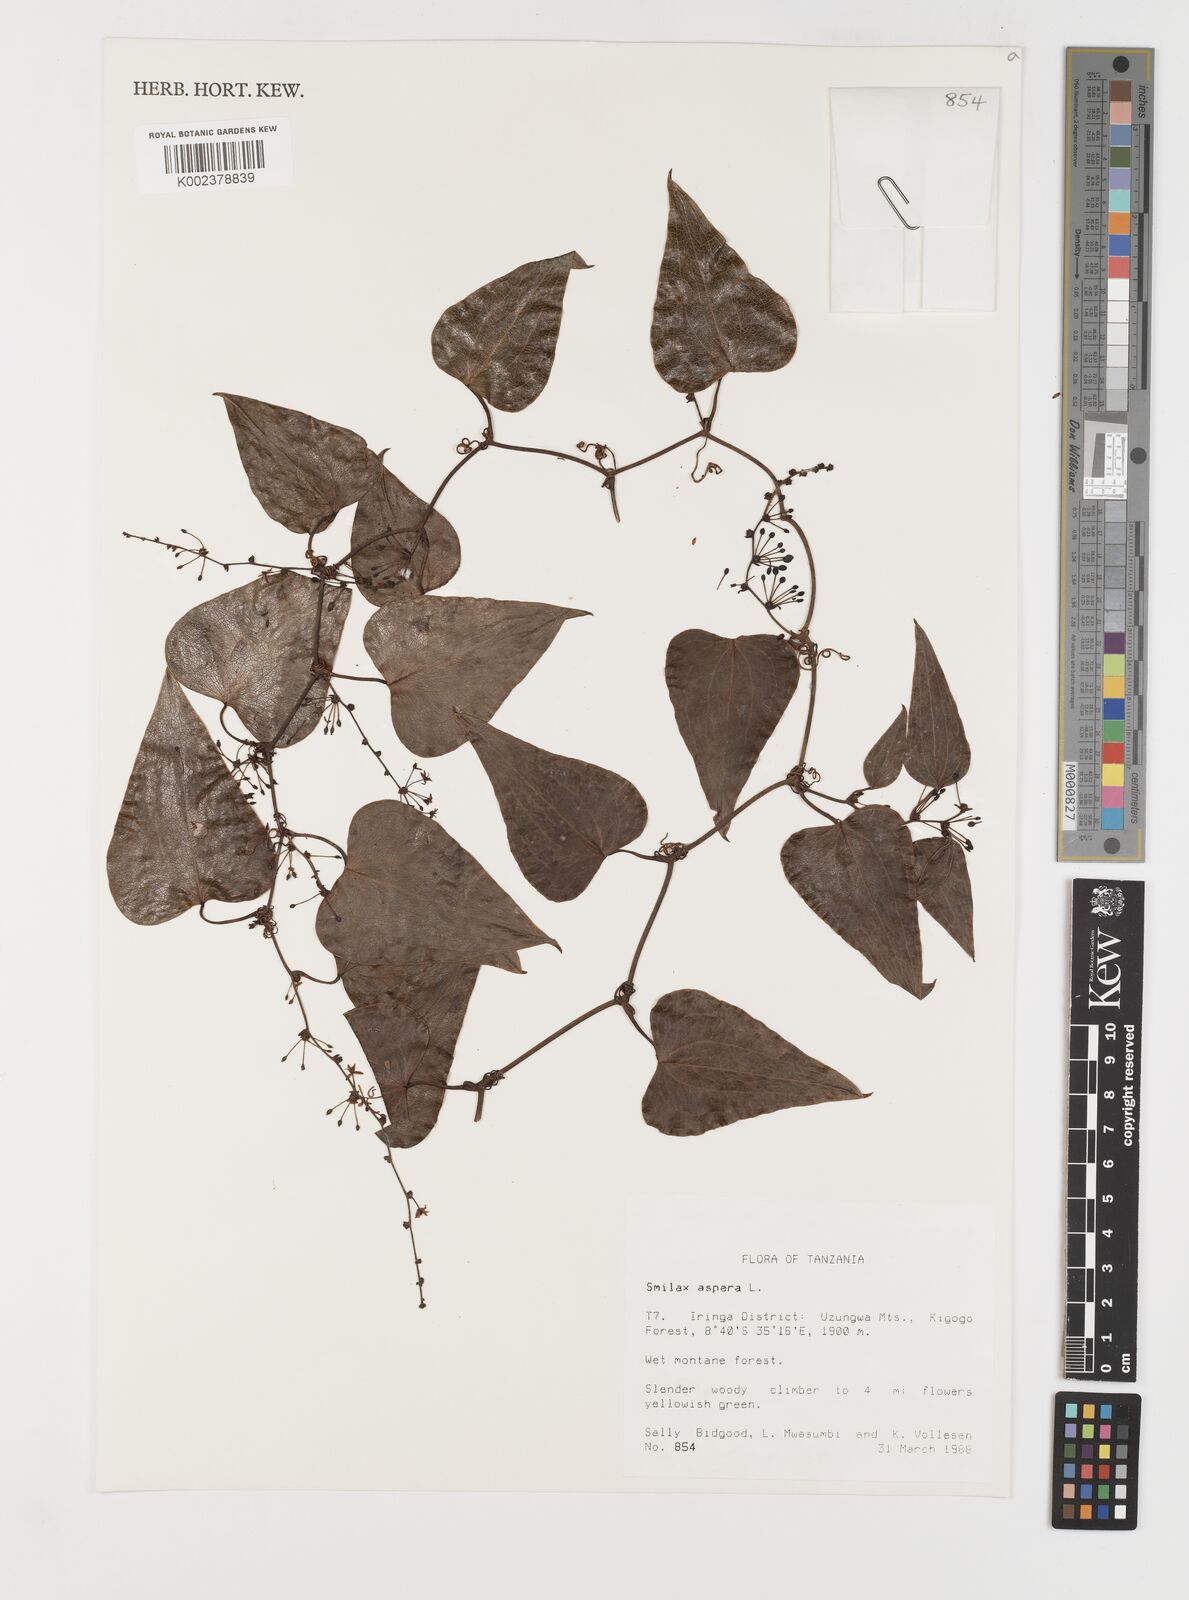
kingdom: Plantae
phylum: Tracheophyta
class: Liliopsida
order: Liliales
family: Smilacaceae
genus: Smilax
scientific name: Smilax aspera
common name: Common smilax
